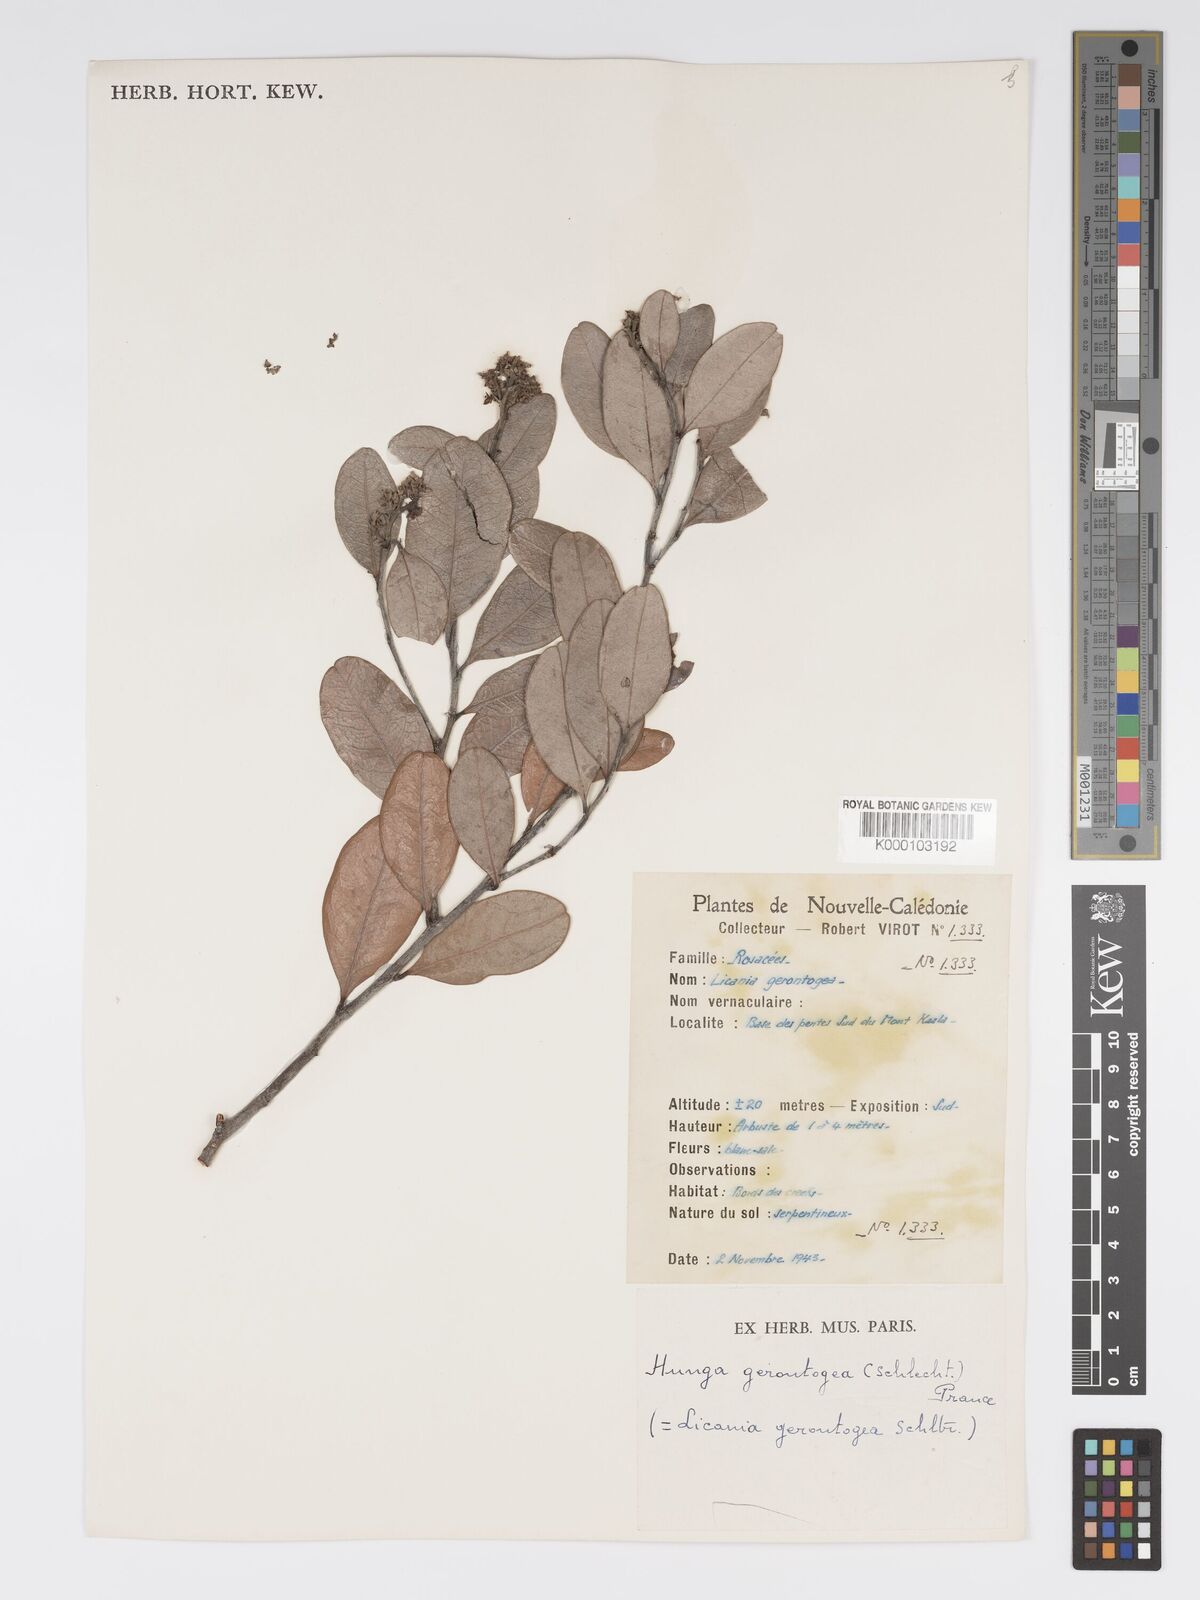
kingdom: Plantae
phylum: Tracheophyta
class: Magnoliopsida
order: Malpighiales
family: Chrysobalanaceae
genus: Hunga
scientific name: Hunga gerontogea
